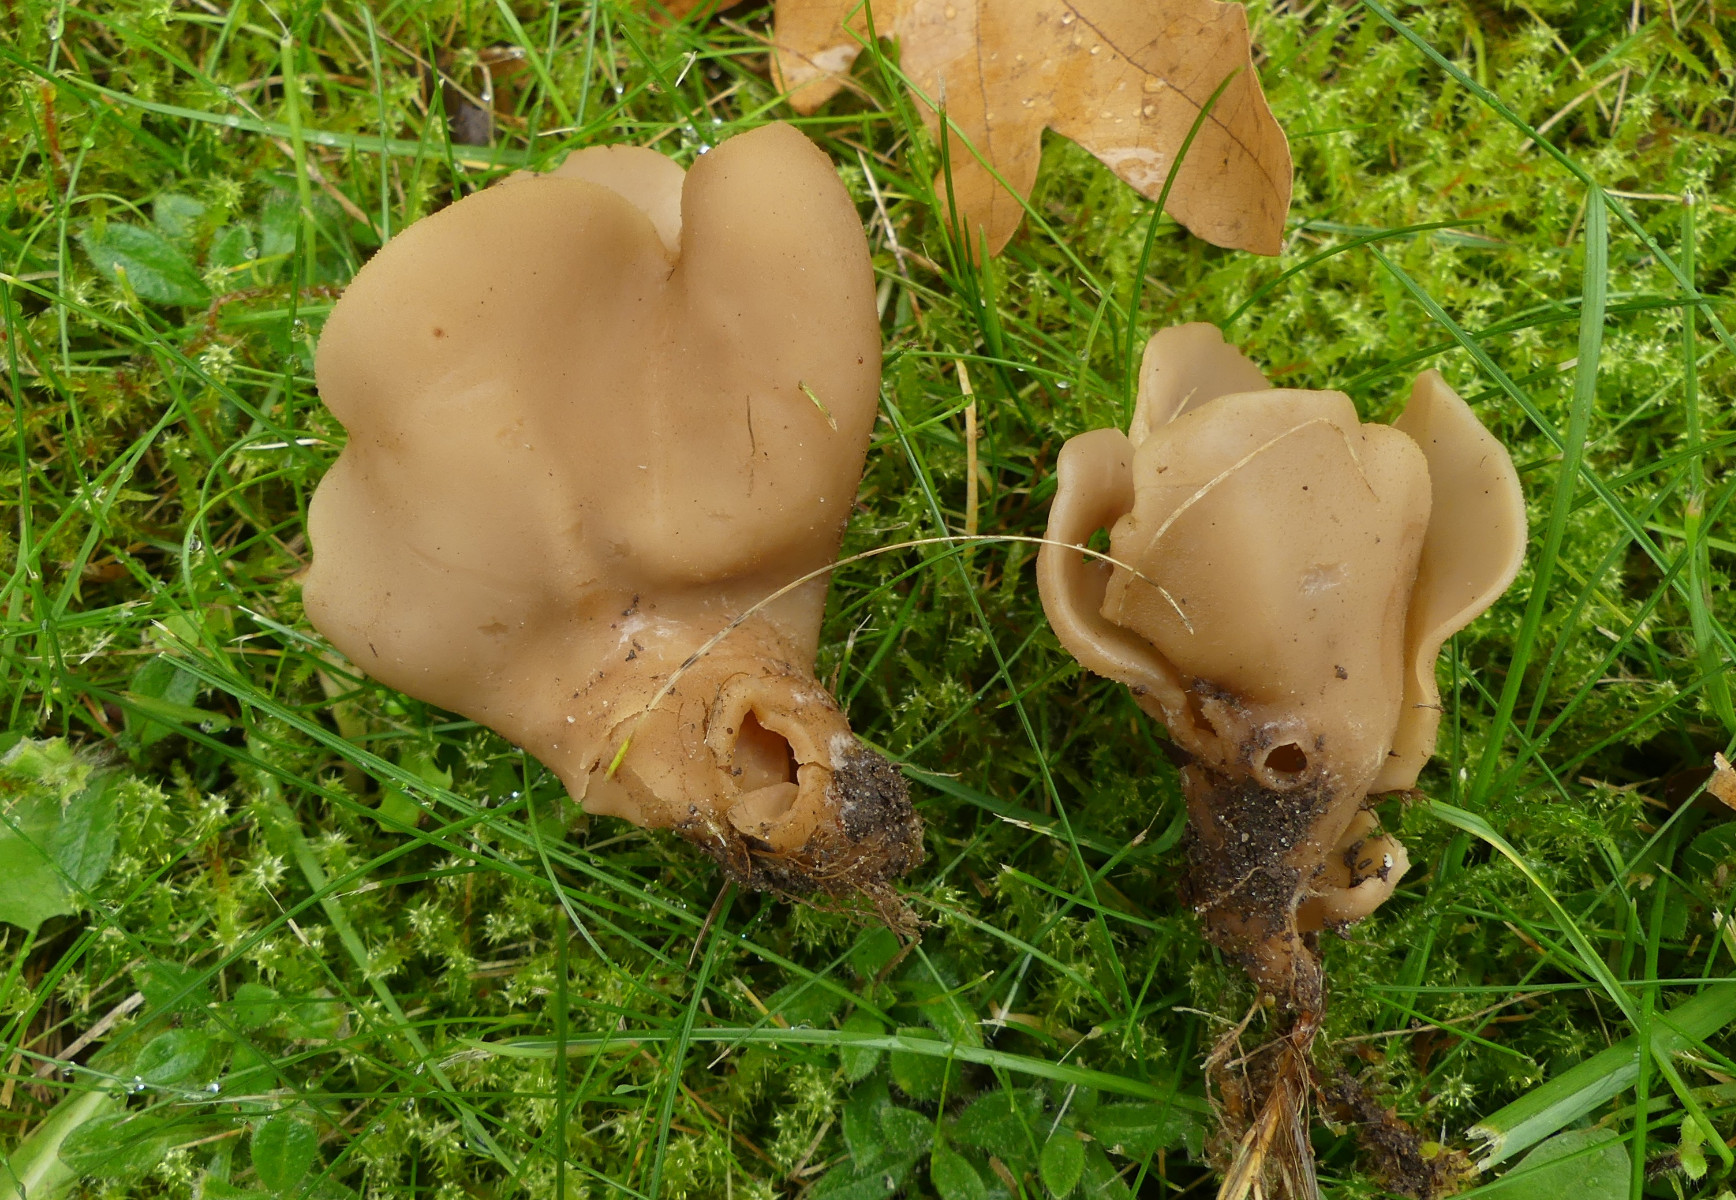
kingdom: Fungi
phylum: Ascomycota
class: Pezizomycetes
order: Pezizales
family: Otideaceae
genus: Otidea
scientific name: Otidea alutacea
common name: læder-ørebæger
